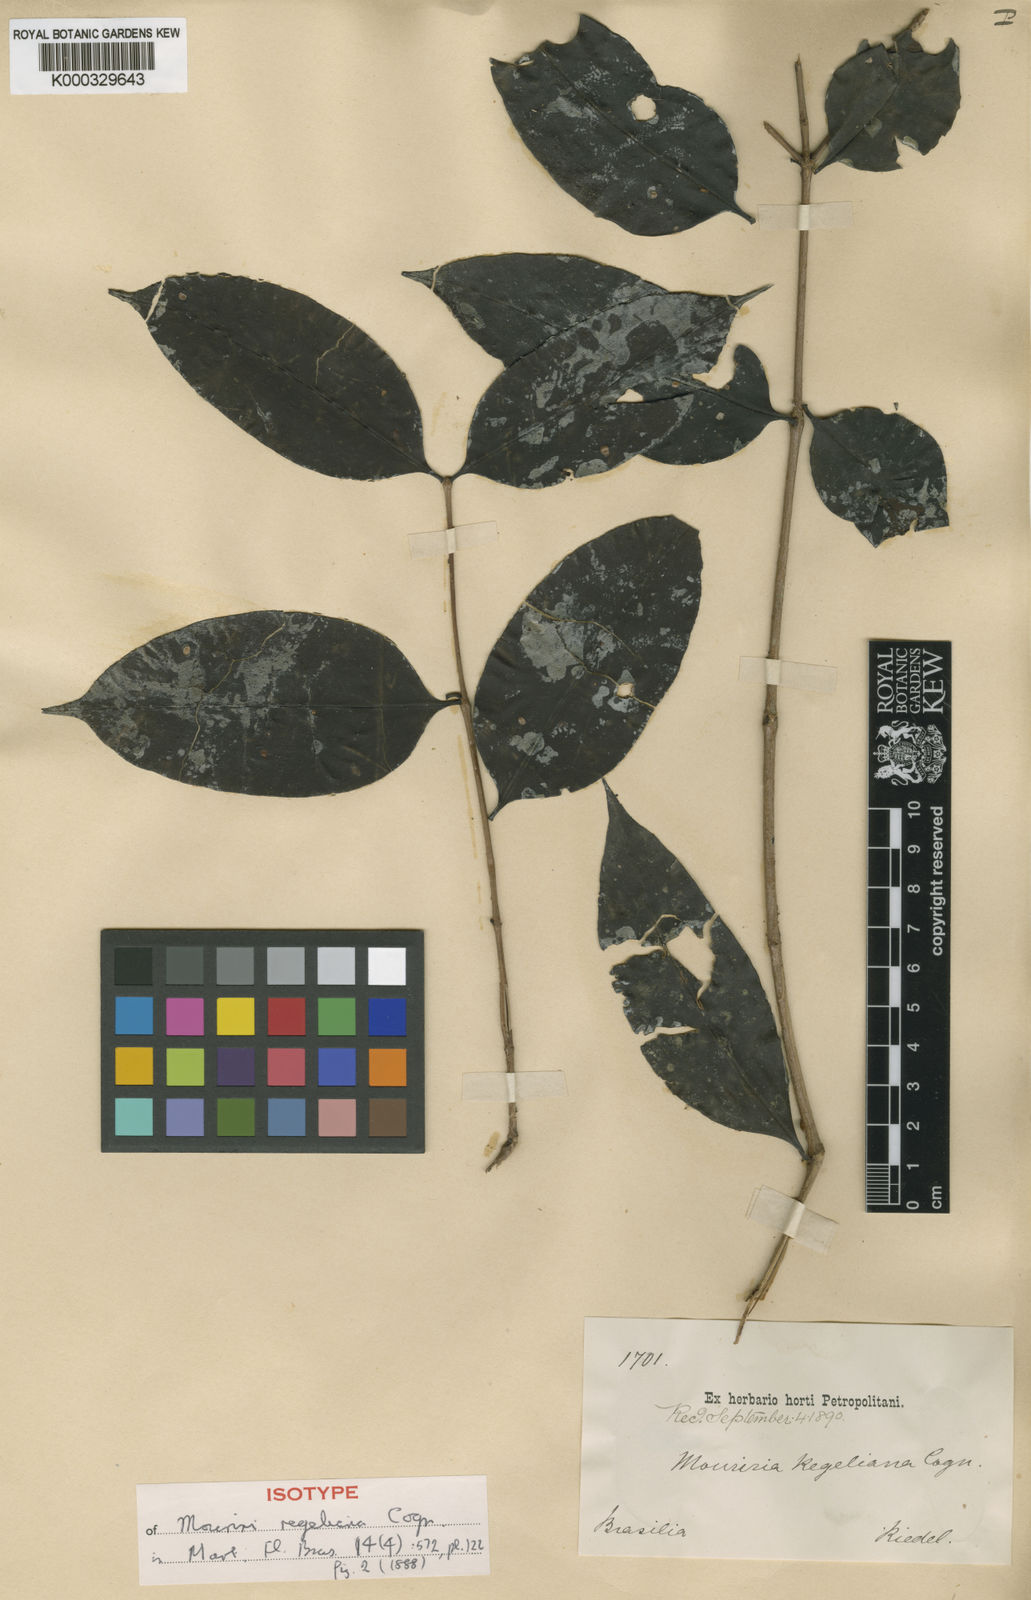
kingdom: Plantae
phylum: Tracheophyta
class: Magnoliopsida
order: Myrtales
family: Melastomataceae
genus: Mouriri
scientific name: Mouriri regeliana
